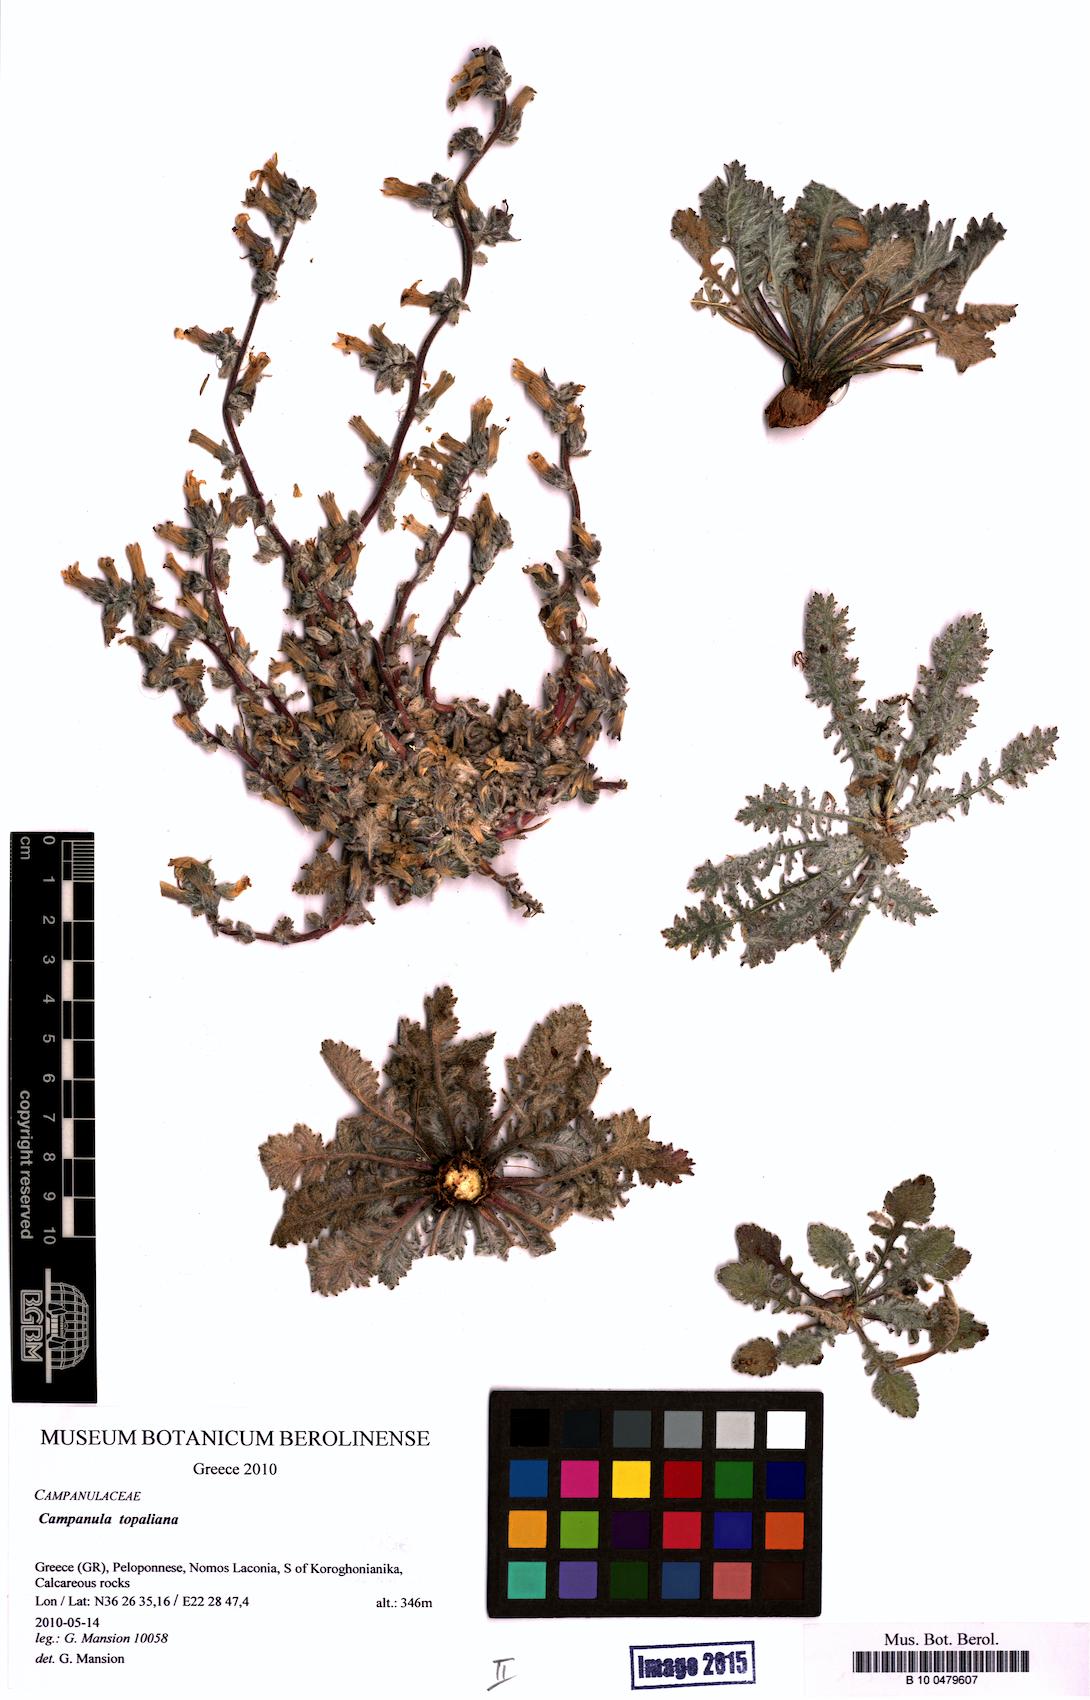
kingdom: Plantae
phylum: Tracheophyta
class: Magnoliopsida
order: Asterales
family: Campanulaceae
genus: Campanula
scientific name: Campanula topaliana
